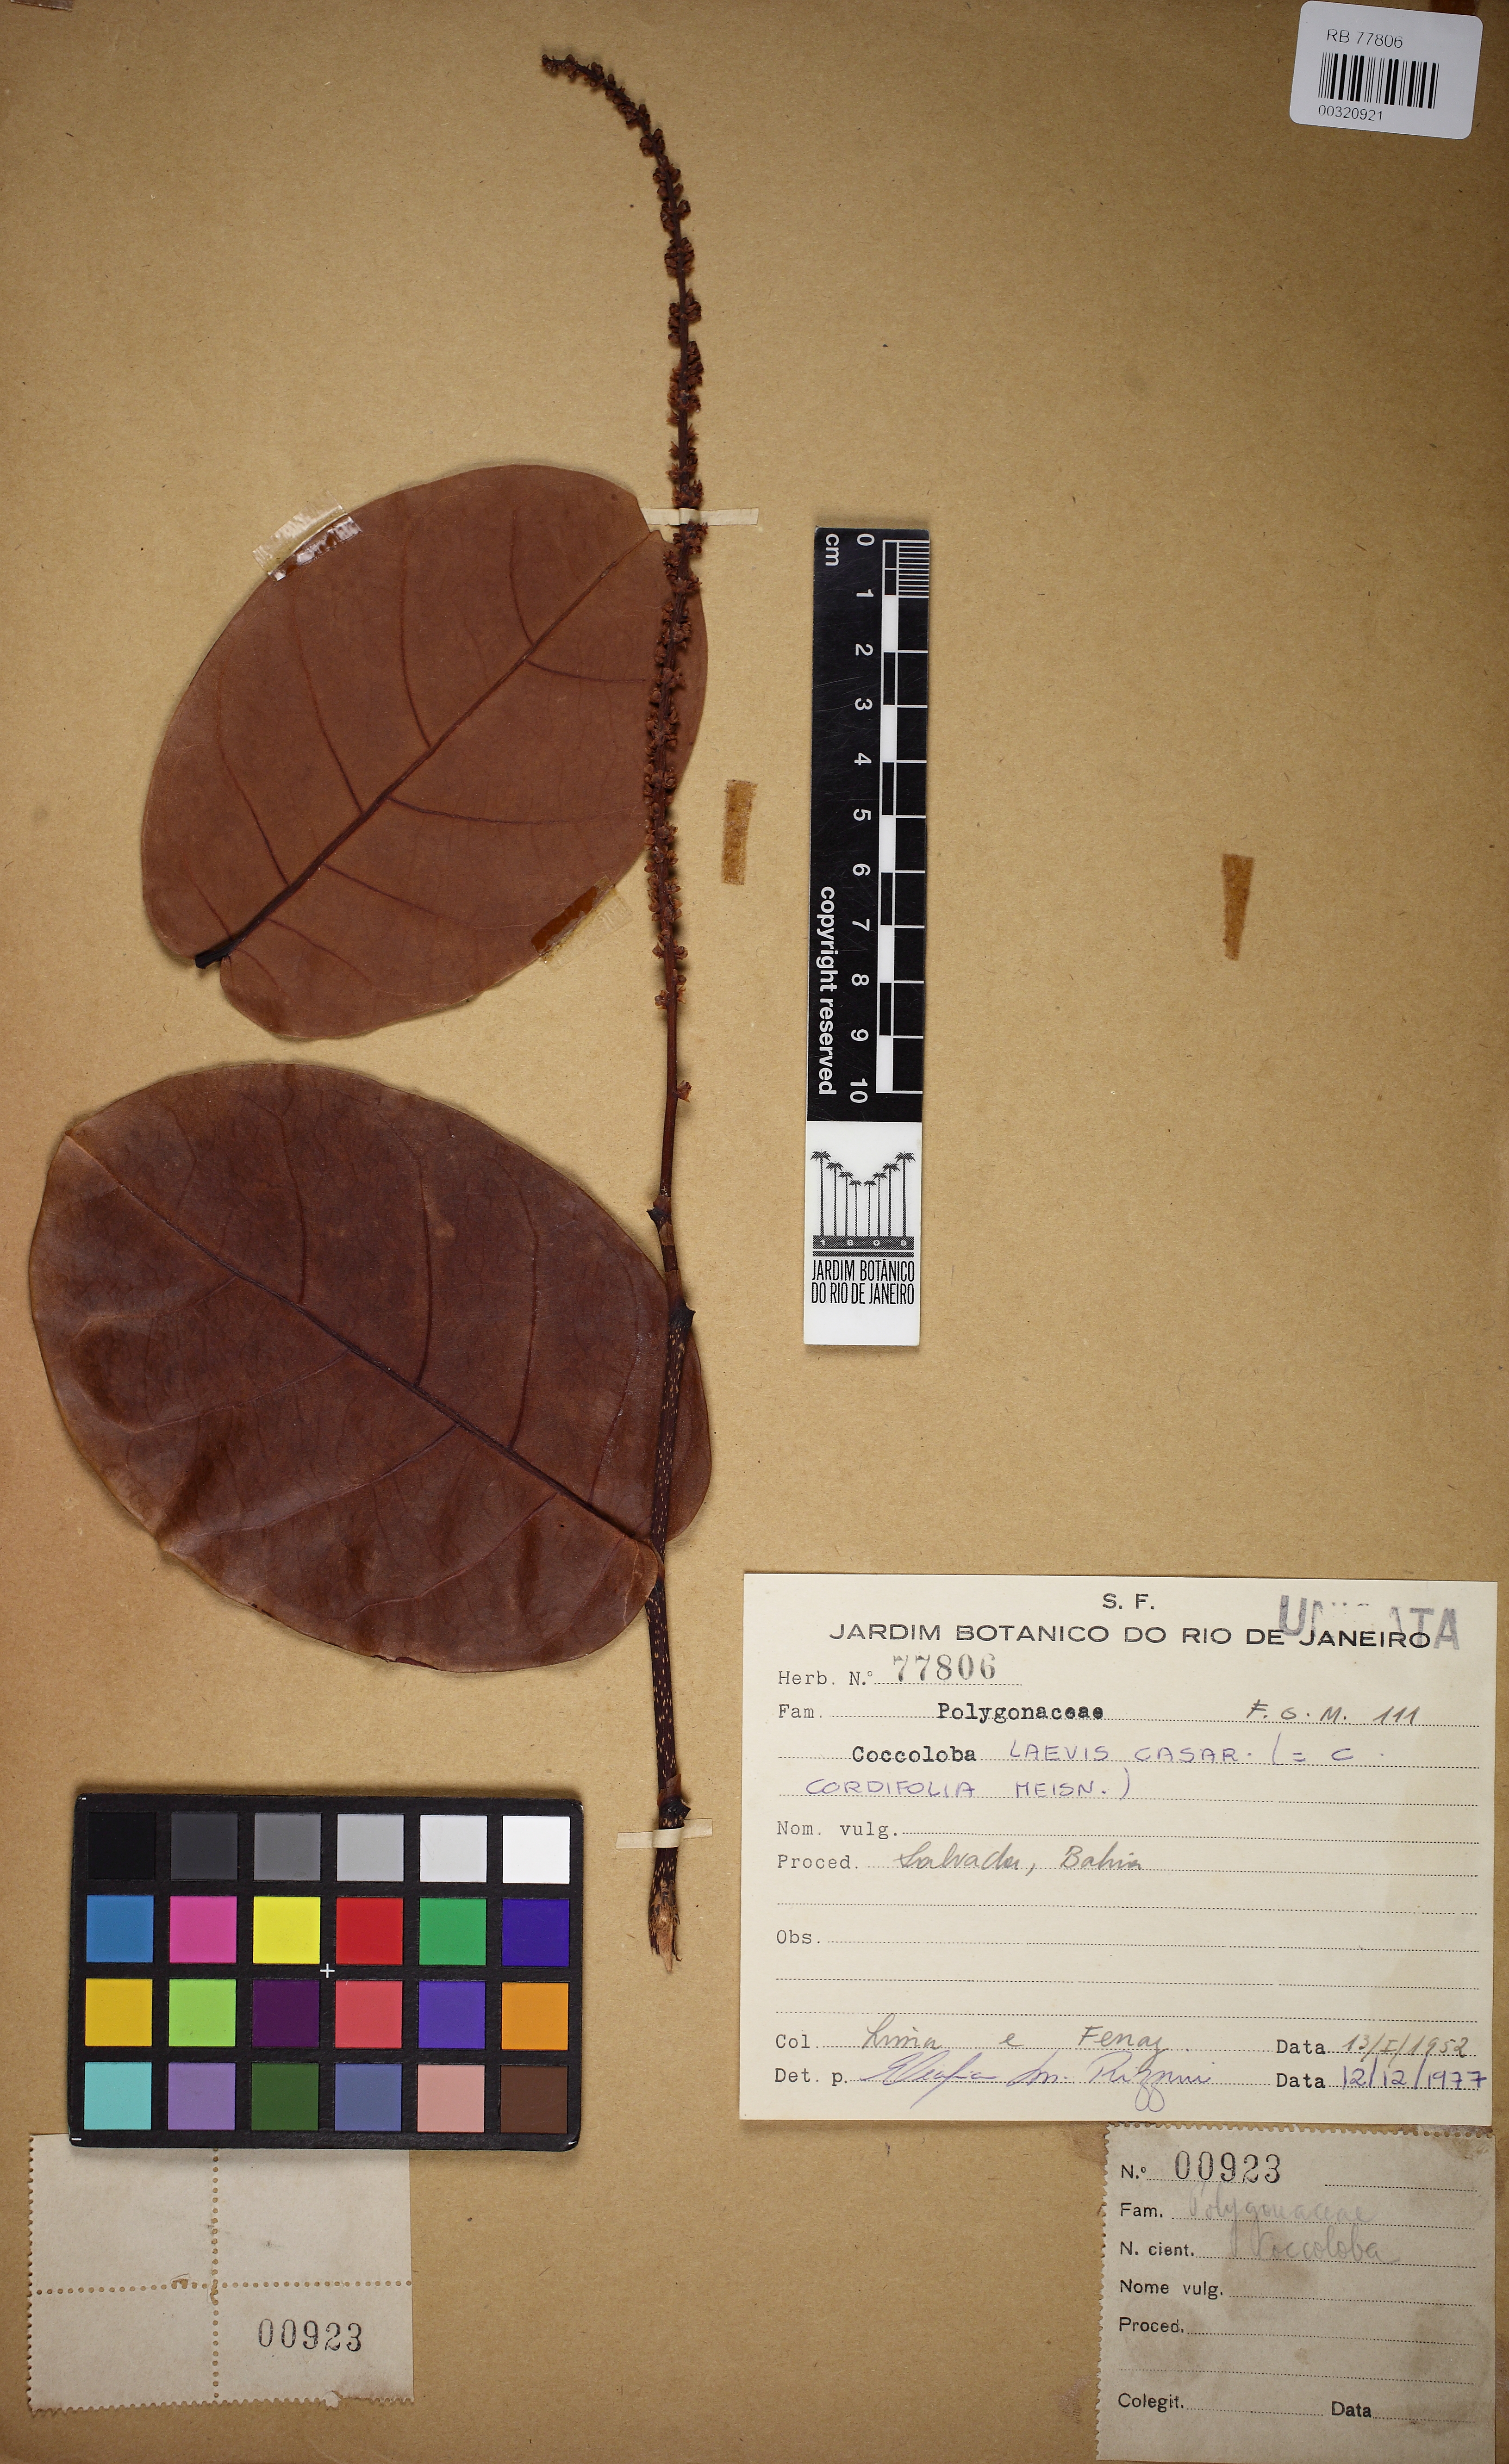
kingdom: Plantae
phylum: Tracheophyta
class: Magnoliopsida
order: Caryophyllales
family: Polygonaceae
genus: Coccoloba
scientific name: Coccoloba laevis
